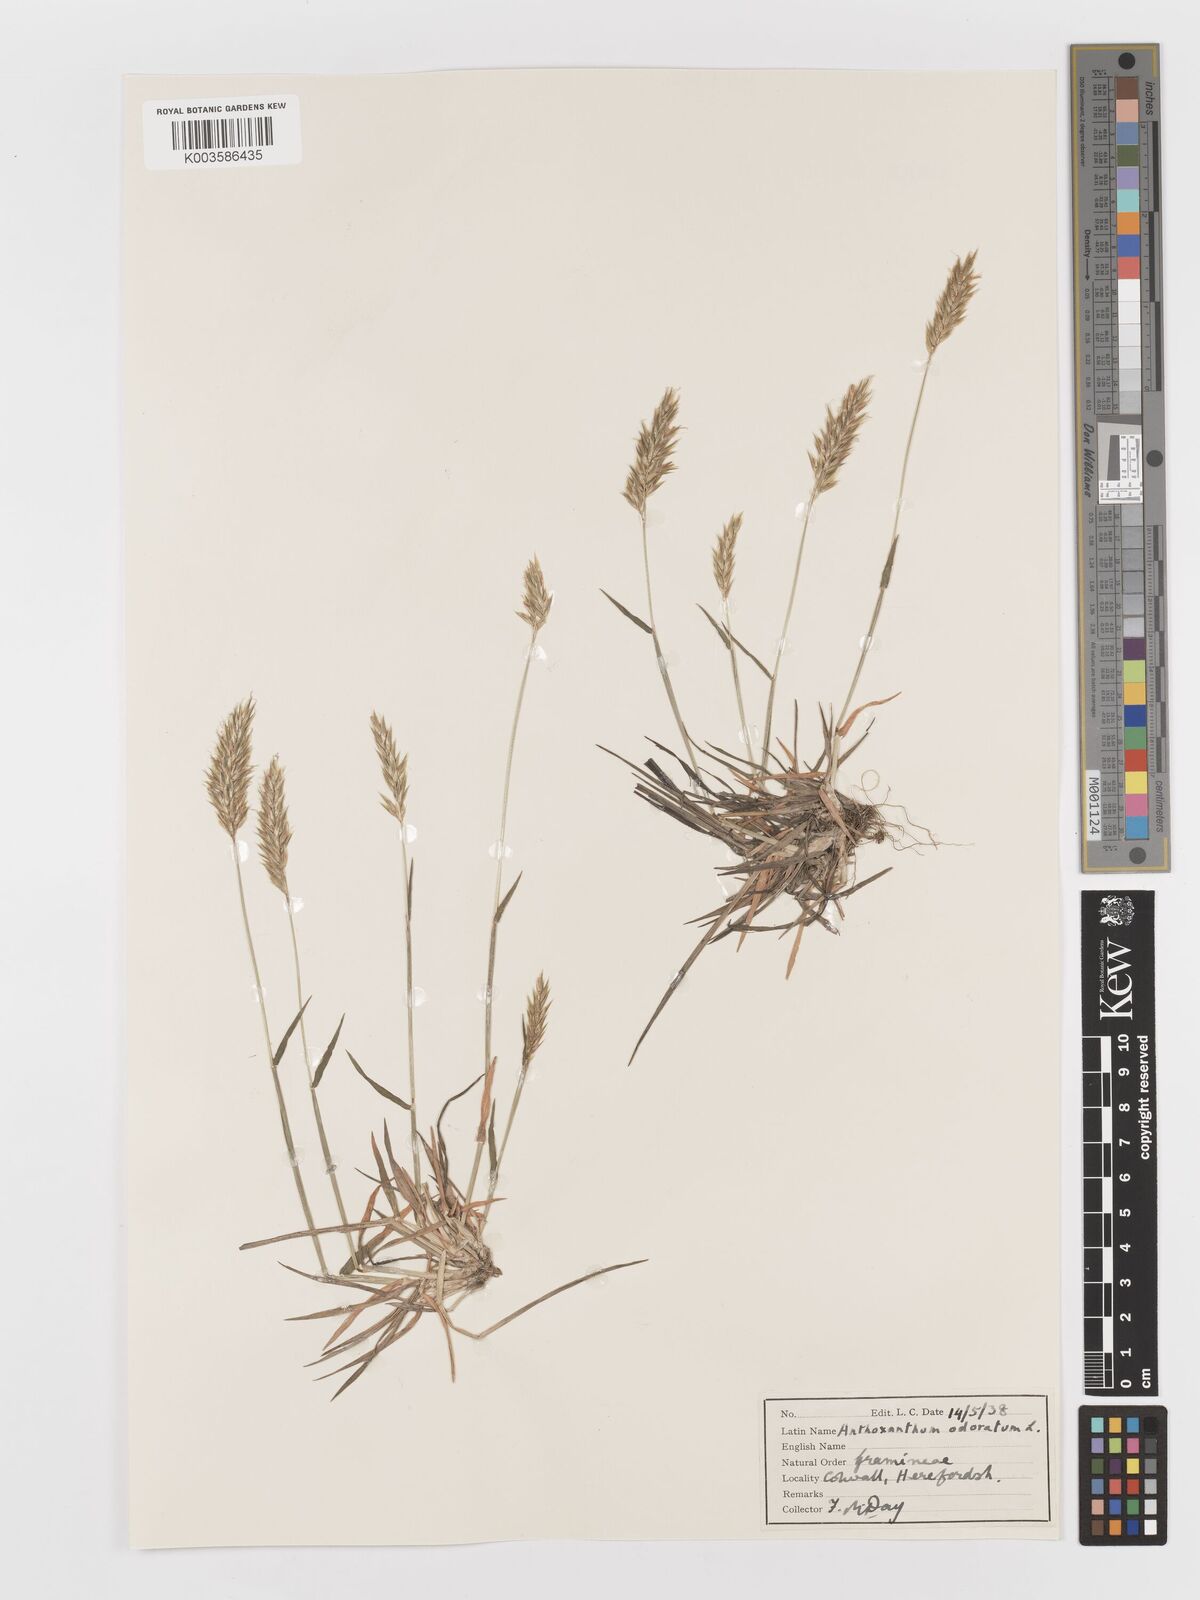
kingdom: Plantae
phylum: Tracheophyta
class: Liliopsida
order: Poales
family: Poaceae
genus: Anthoxanthum
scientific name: Anthoxanthum odoratum
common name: Sweet vernalgrass
